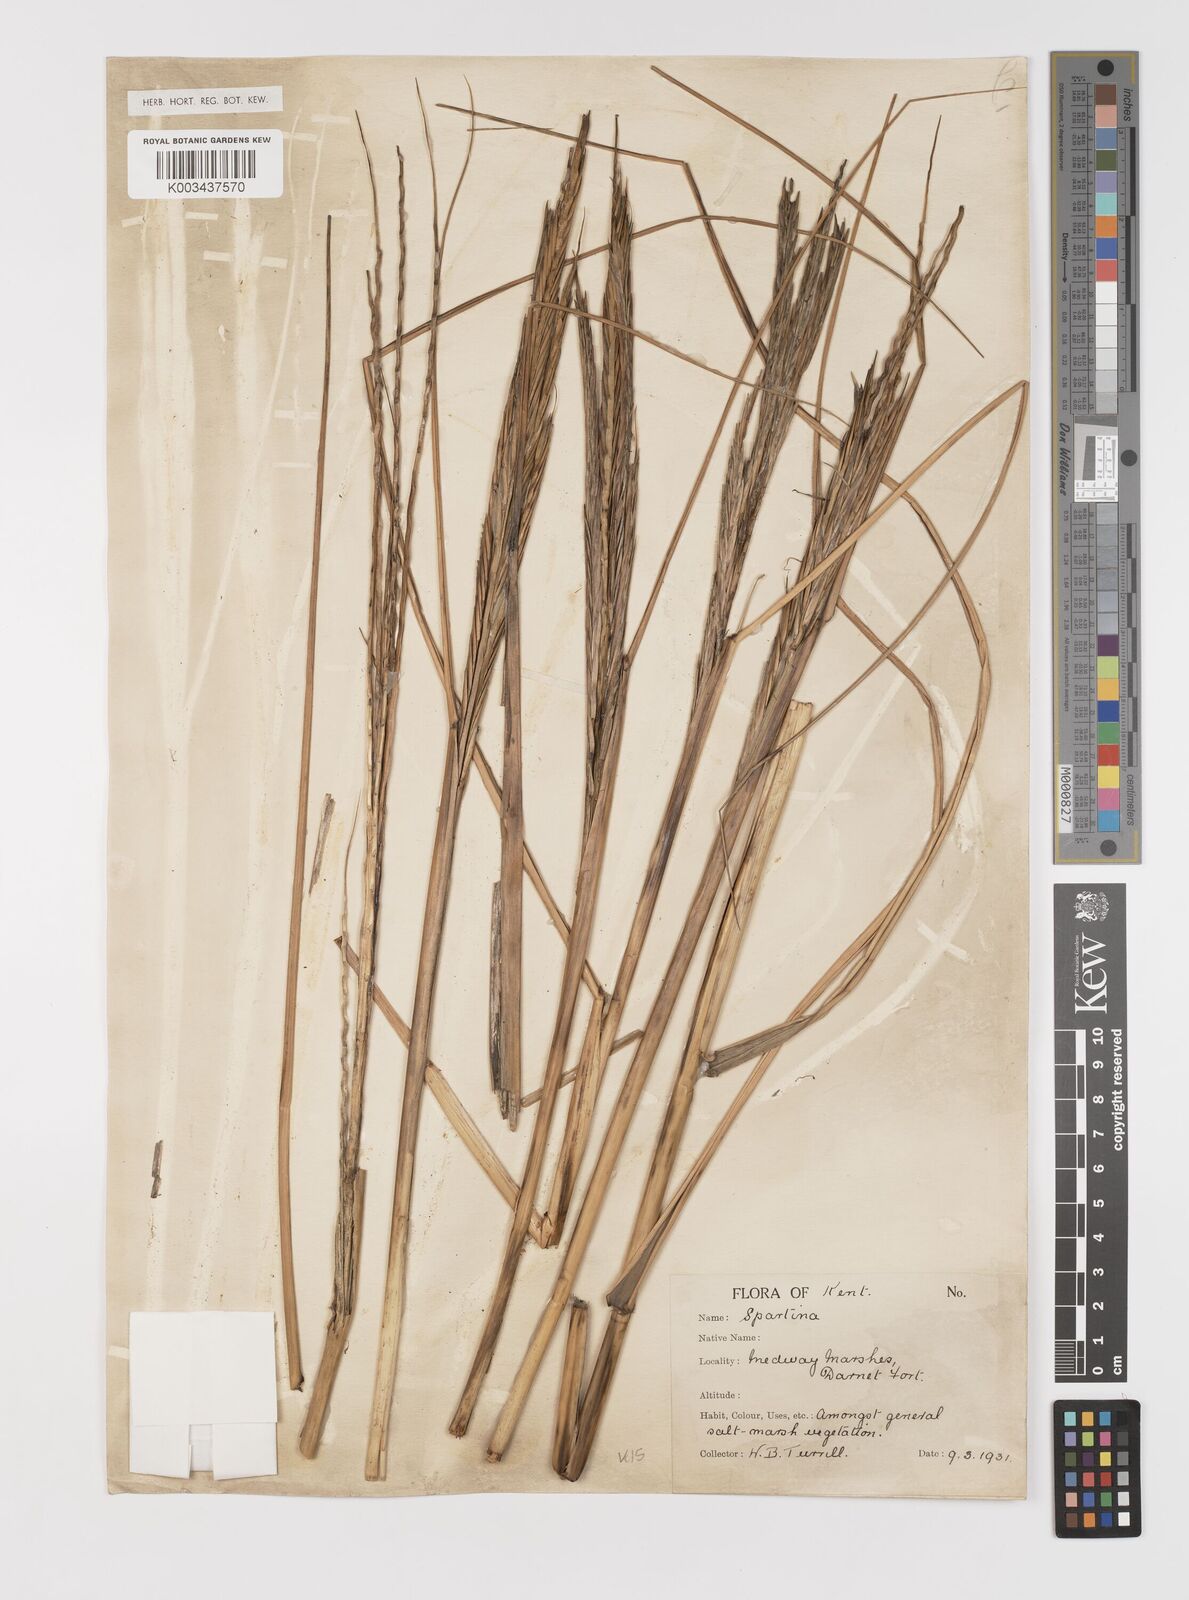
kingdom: Plantae
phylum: Tracheophyta
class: Liliopsida
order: Poales
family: Poaceae
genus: Sporobolus
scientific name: Sporobolus anglicus
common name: English cordgrass
